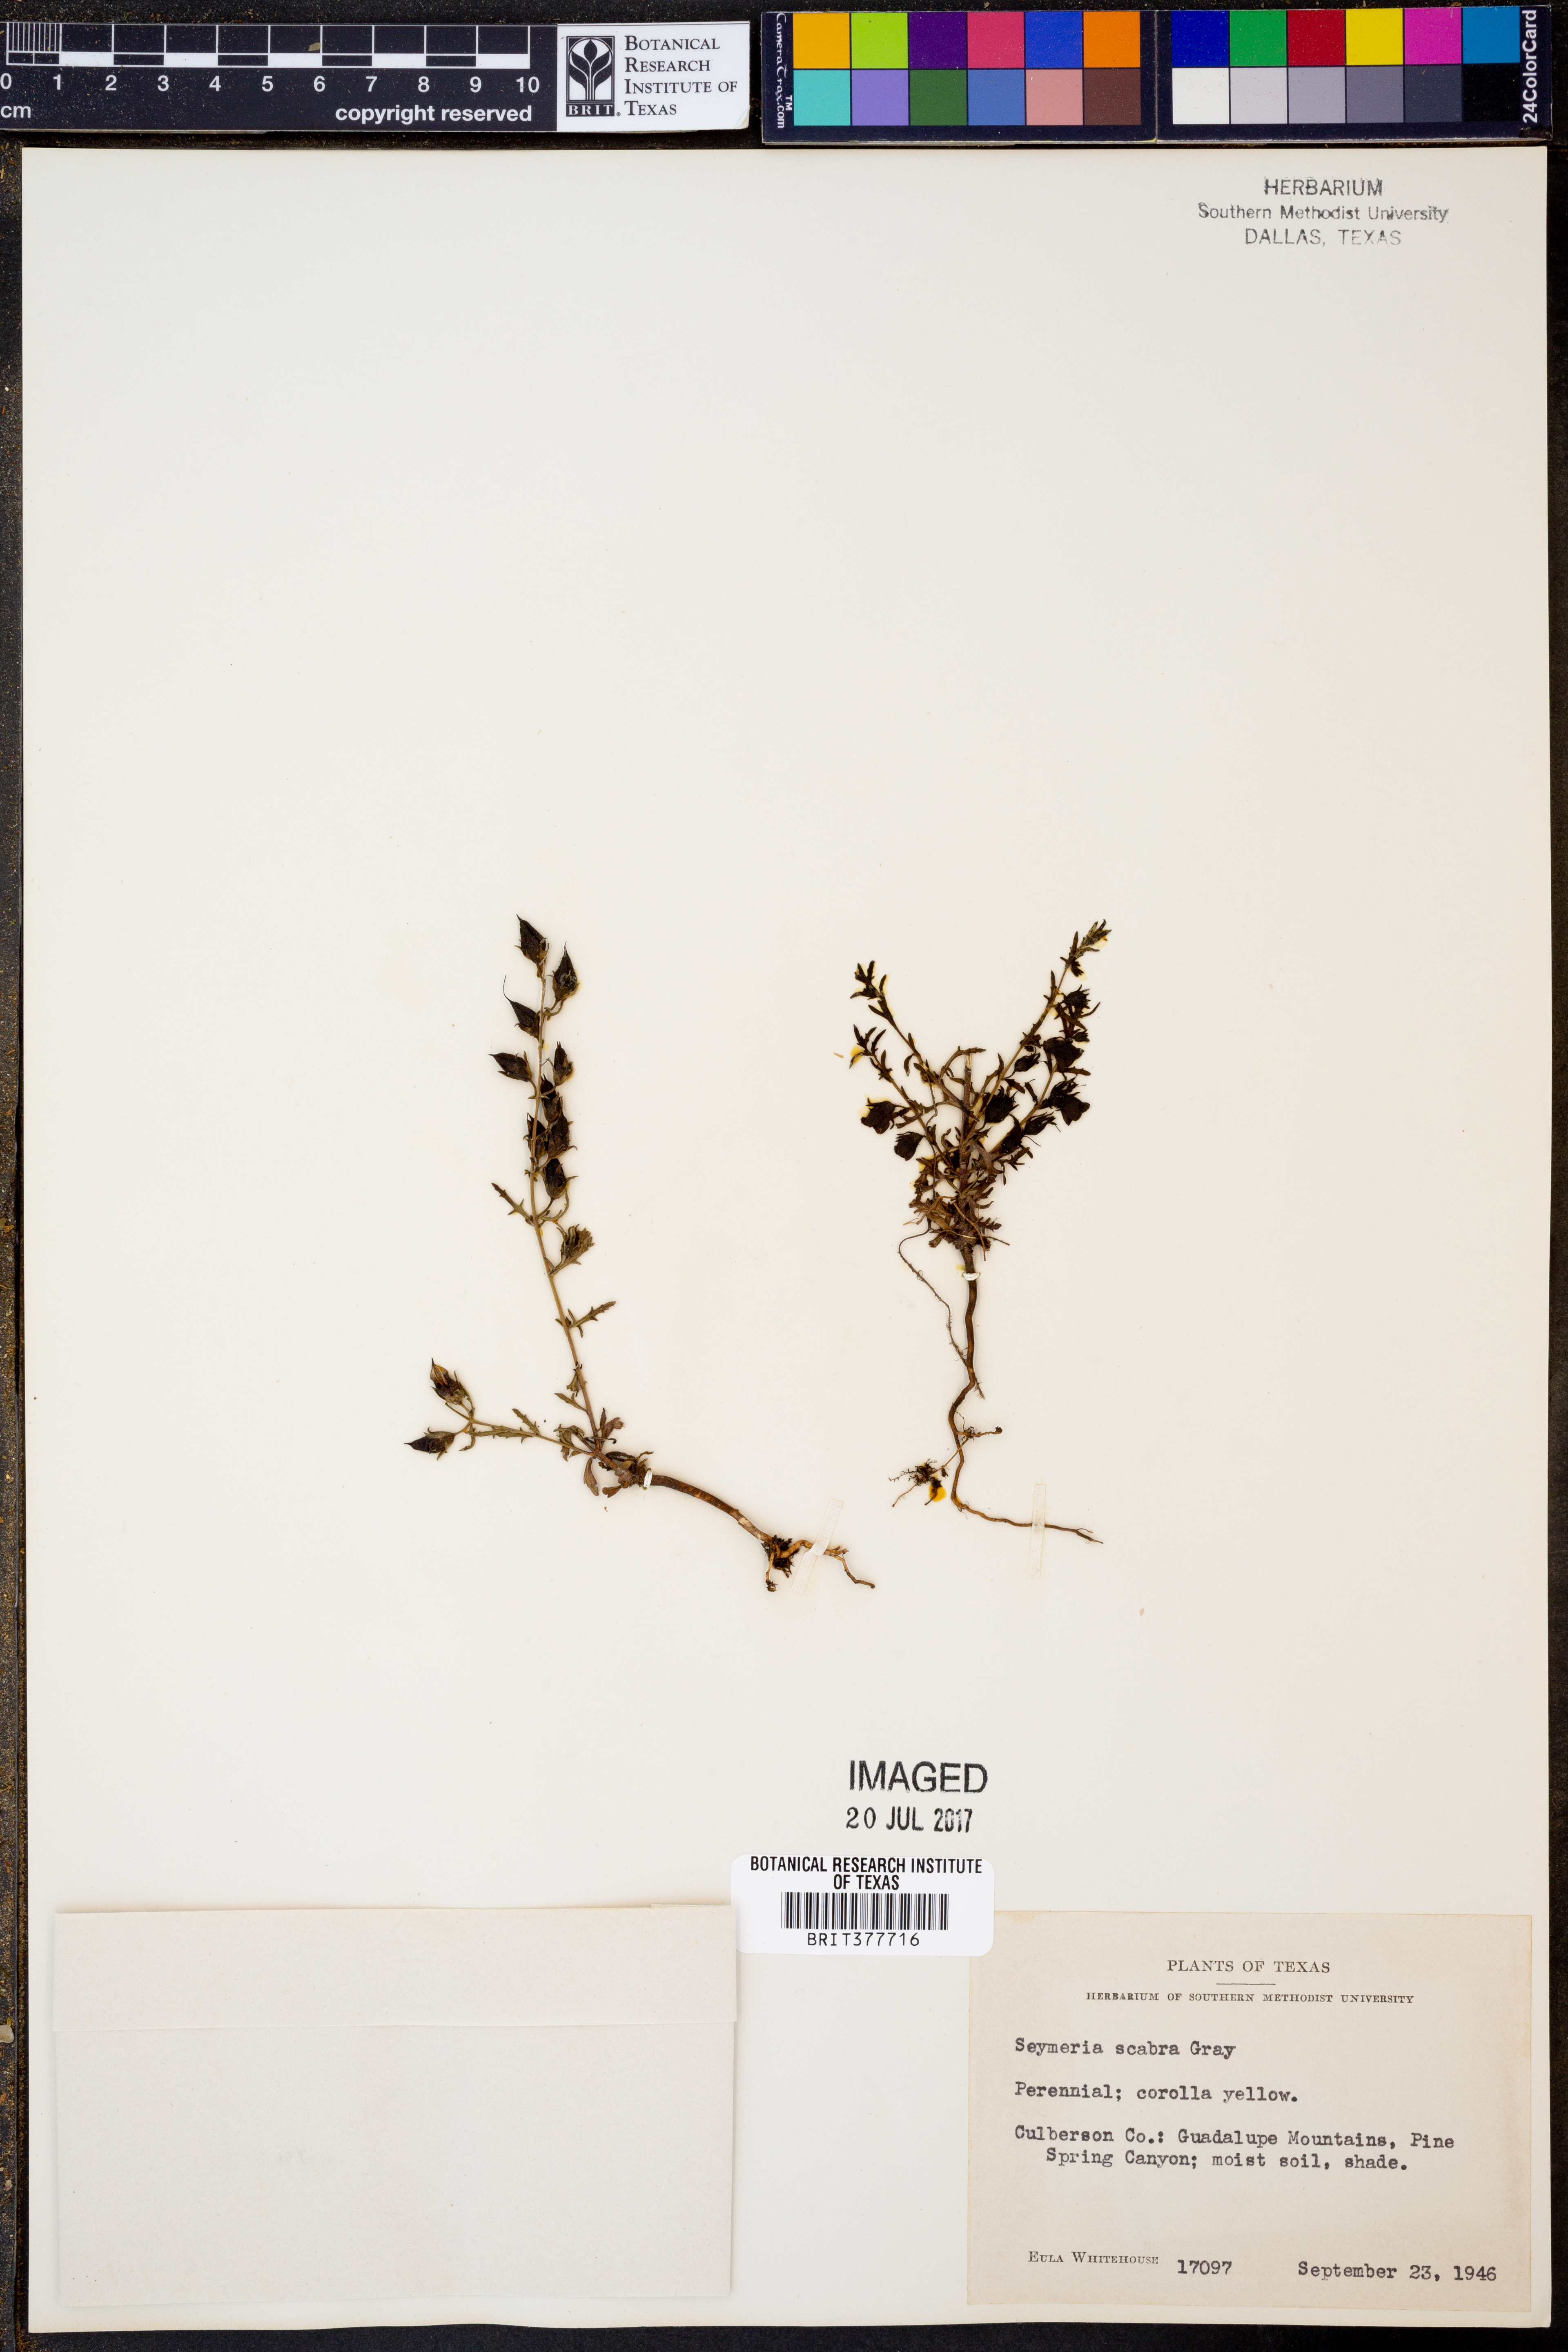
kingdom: Plantae
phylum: Tracheophyta
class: Magnoliopsida
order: Lamiales
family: Orobanchaceae
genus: Seymeria
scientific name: Seymeria scabra
